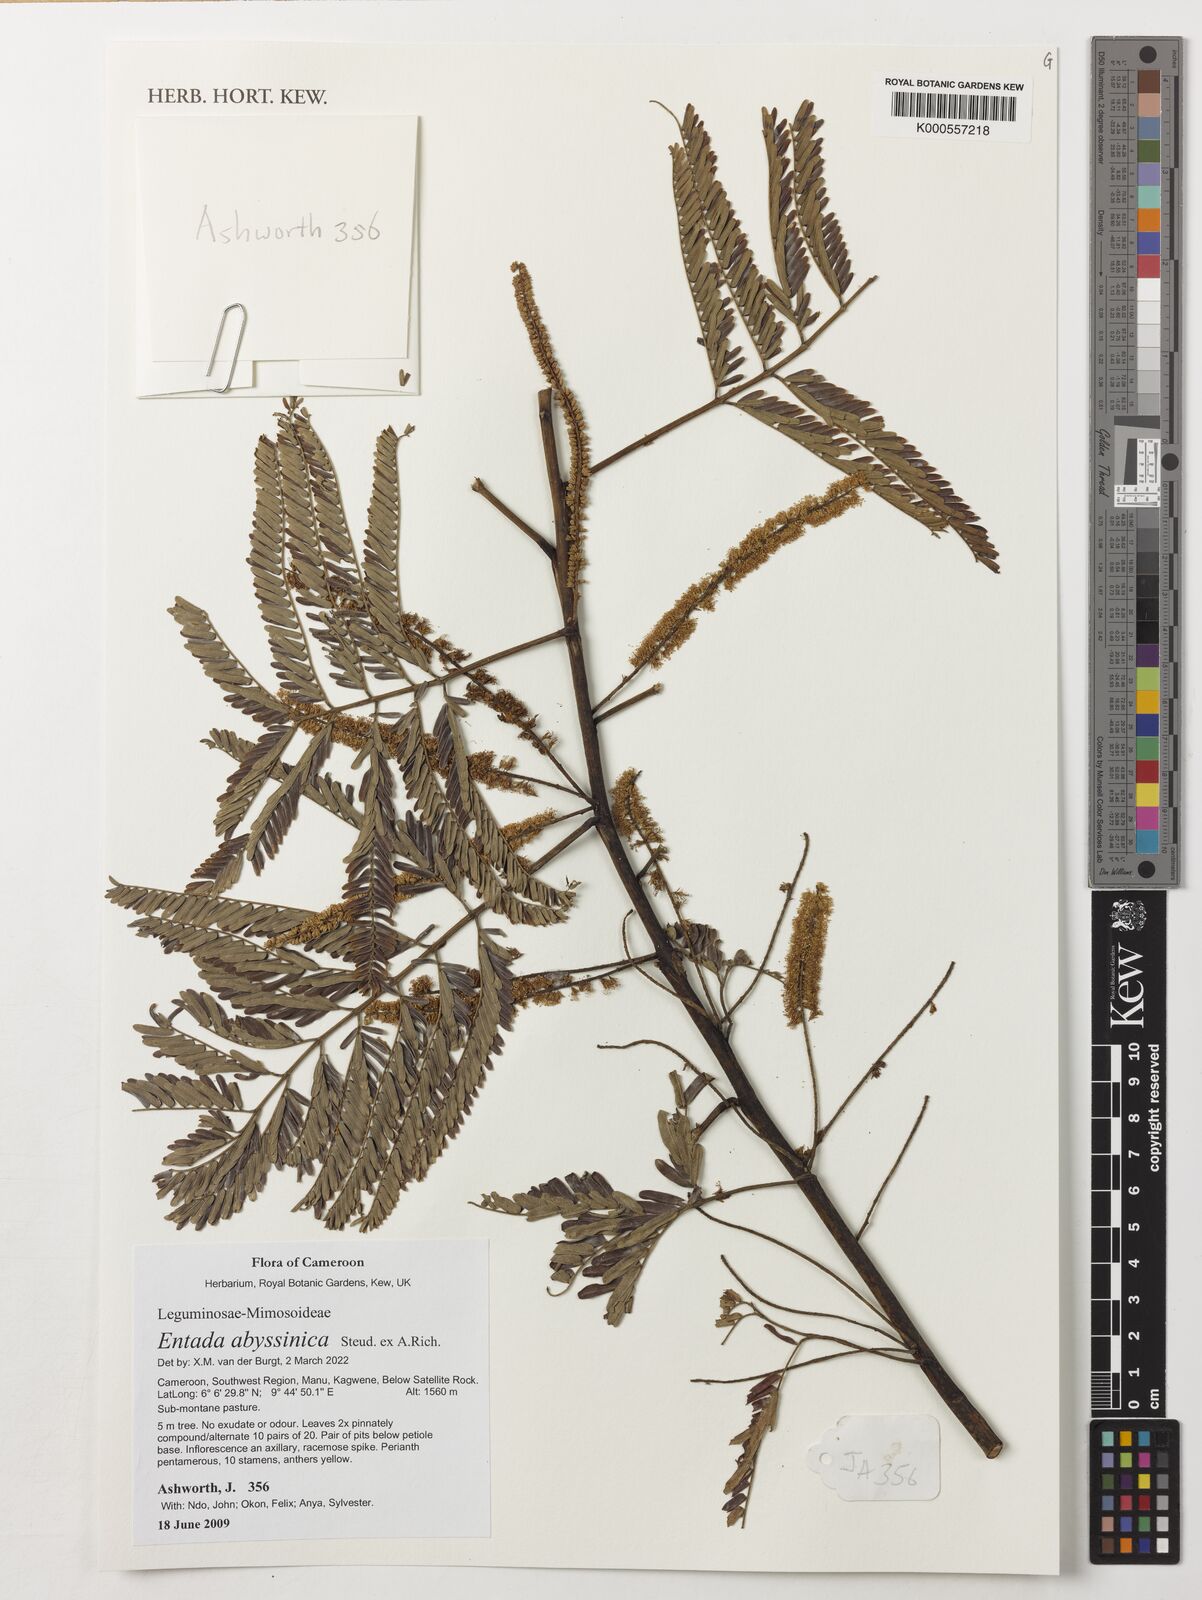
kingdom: Plantae
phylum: Tracheophyta
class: Magnoliopsida
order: Fabales
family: Fabaceae
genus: Entada
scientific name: Entada abyssinica
